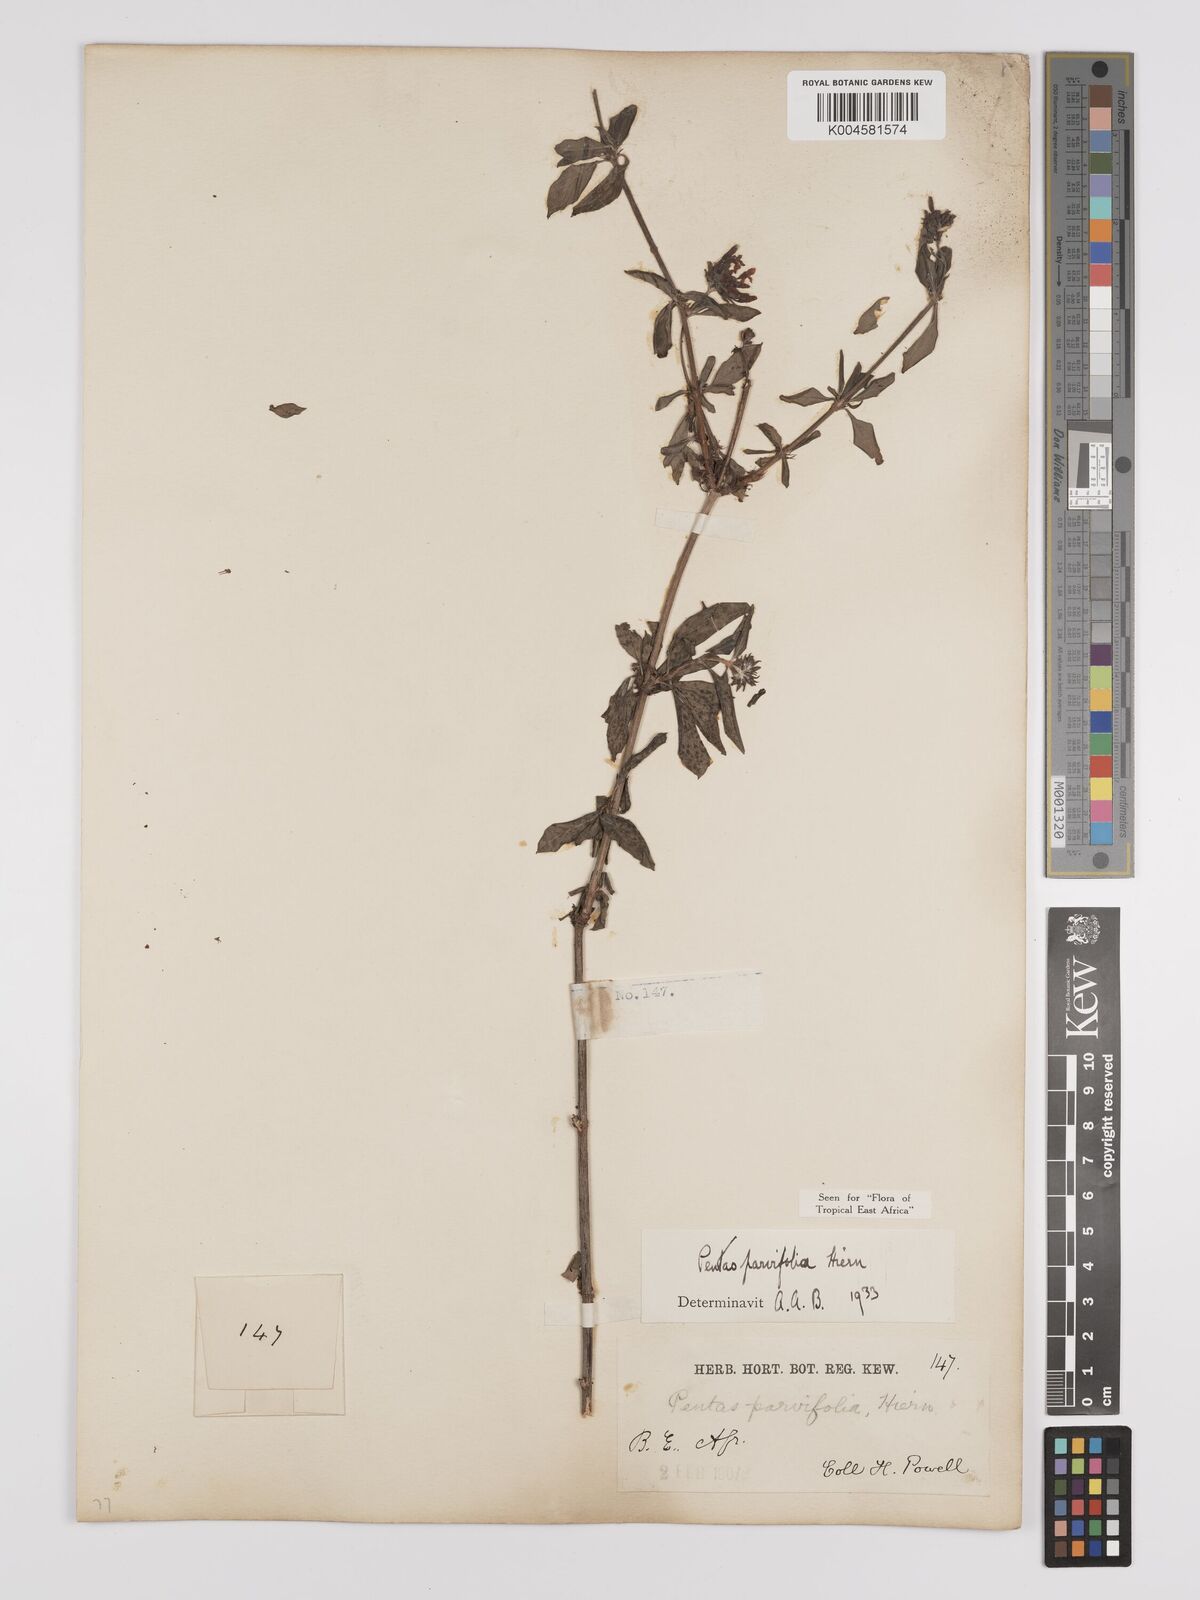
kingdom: Plantae
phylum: Tracheophyta
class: Magnoliopsida
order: Gentianales
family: Rubiaceae
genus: Rhodopentas
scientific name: Rhodopentas parvifolia
